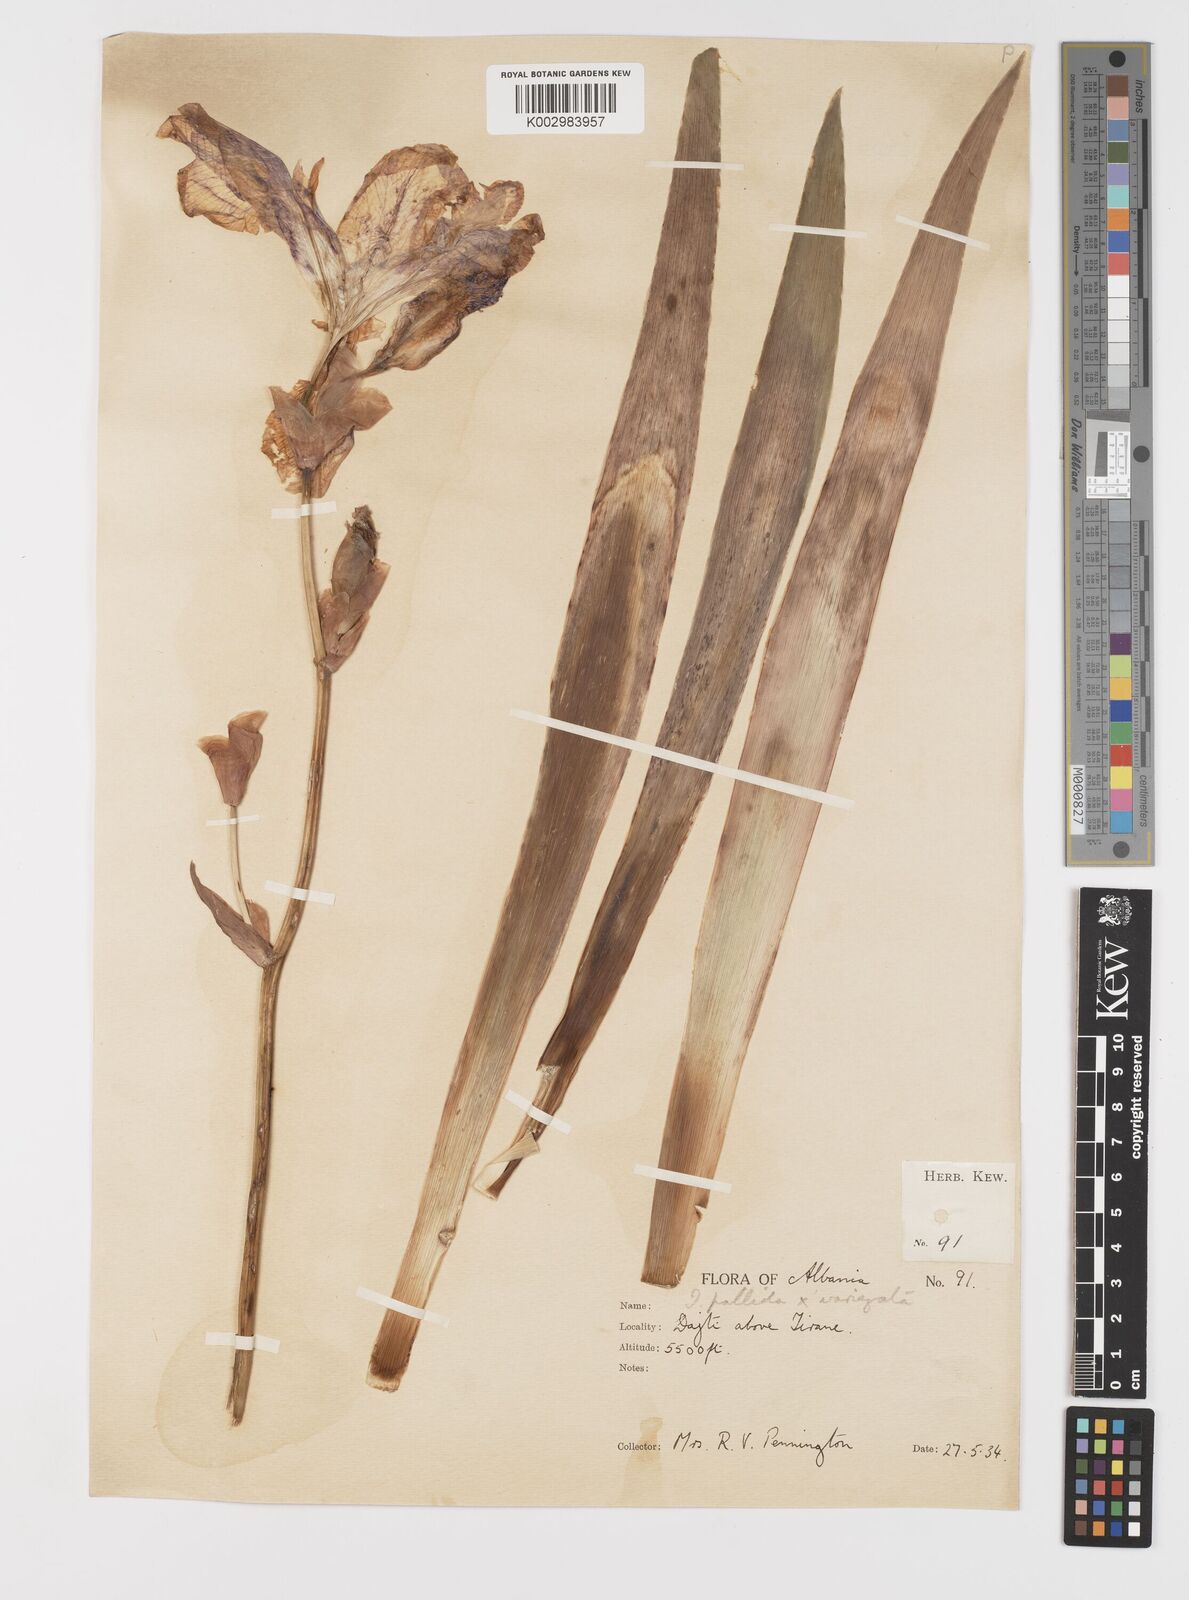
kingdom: Plantae
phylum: Tracheophyta
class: Liliopsida
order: Asparagales
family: Iridaceae
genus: Iris
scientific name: Iris germanica
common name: German iris
